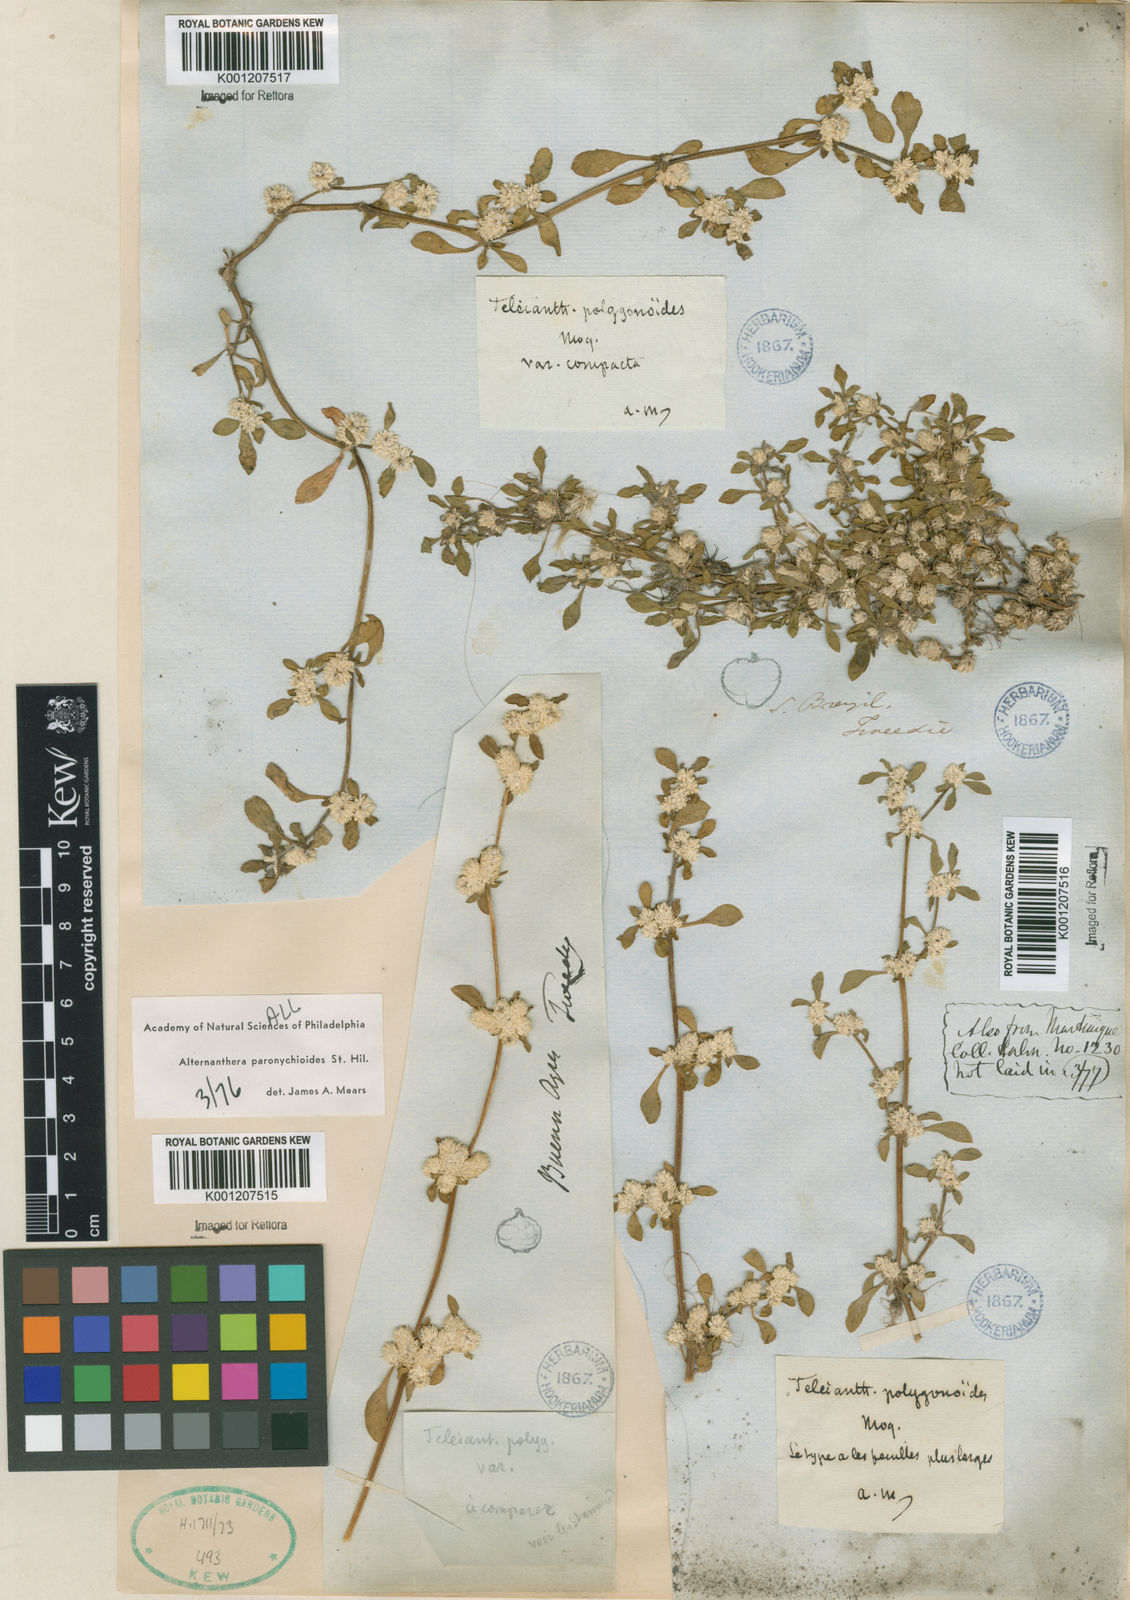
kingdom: Plantae
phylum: Tracheophyta
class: Magnoliopsida
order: Caryophyllales
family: Amaranthaceae
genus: Alternanthera
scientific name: Alternanthera paronychioides
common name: Smooth joyweed
